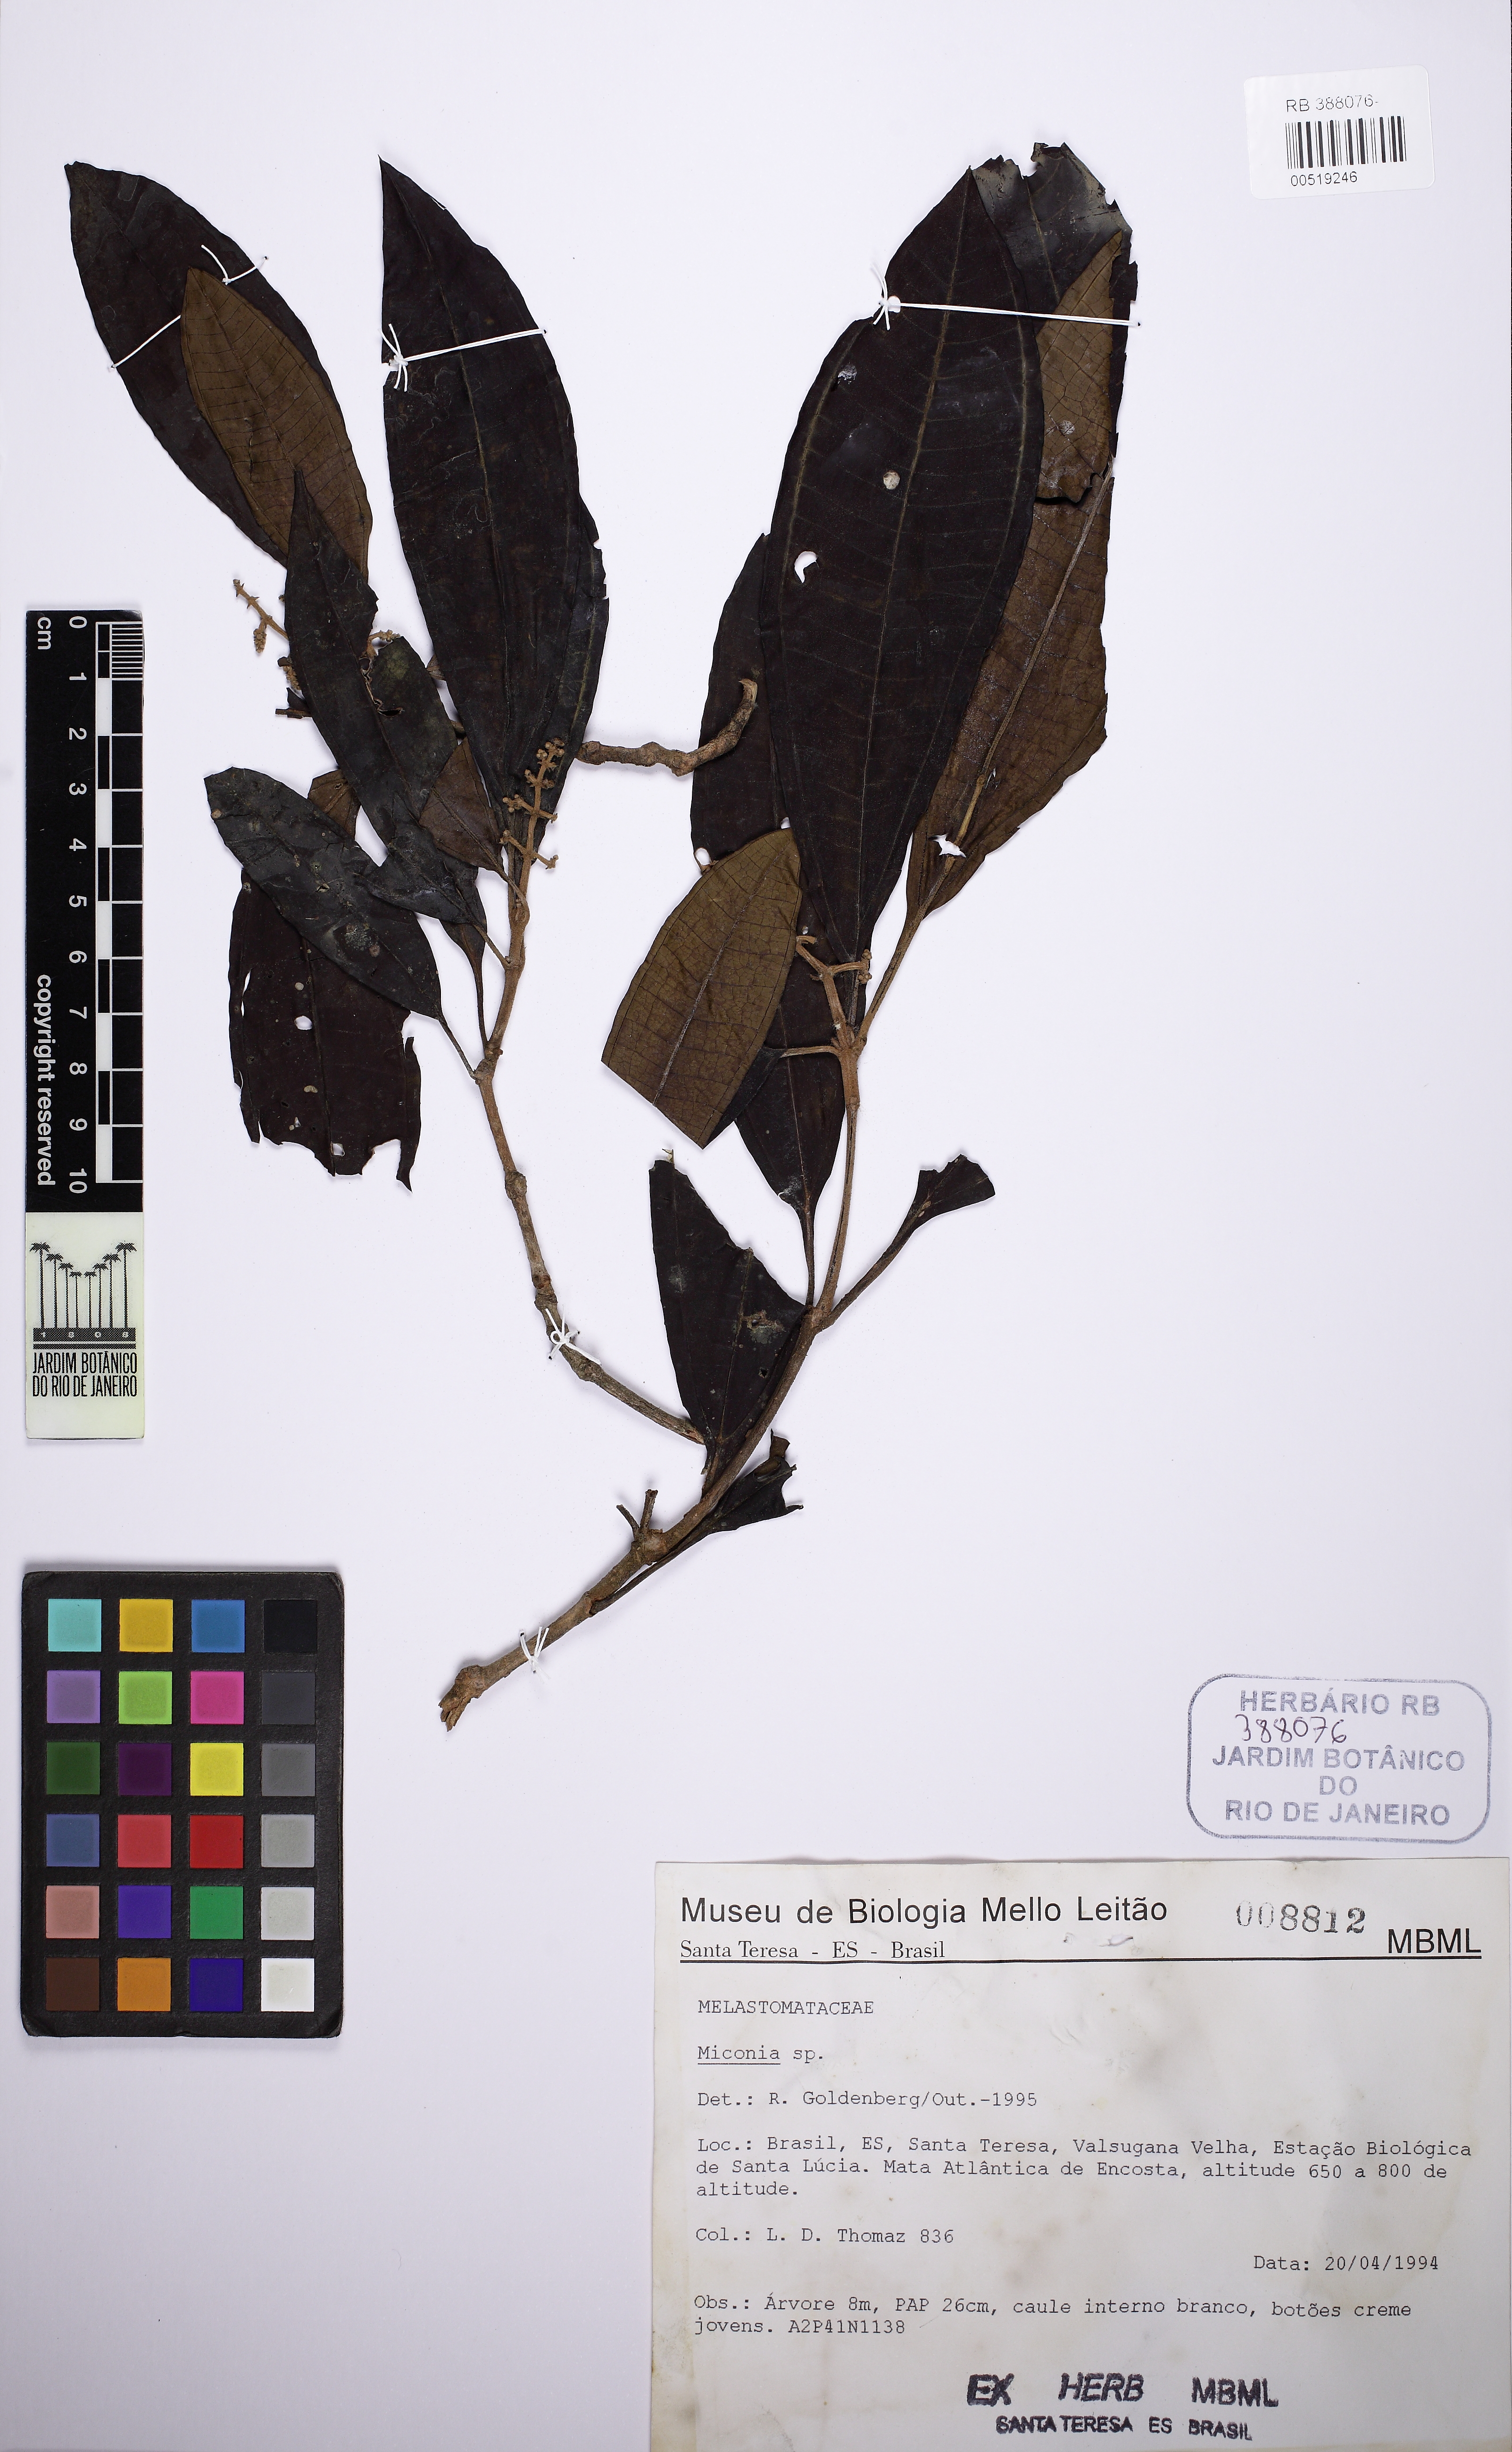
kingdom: Plantae
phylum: Tracheophyta
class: Magnoliopsida
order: Myrtales
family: Melastomataceae
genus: Miconia
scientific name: Miconia prasina
